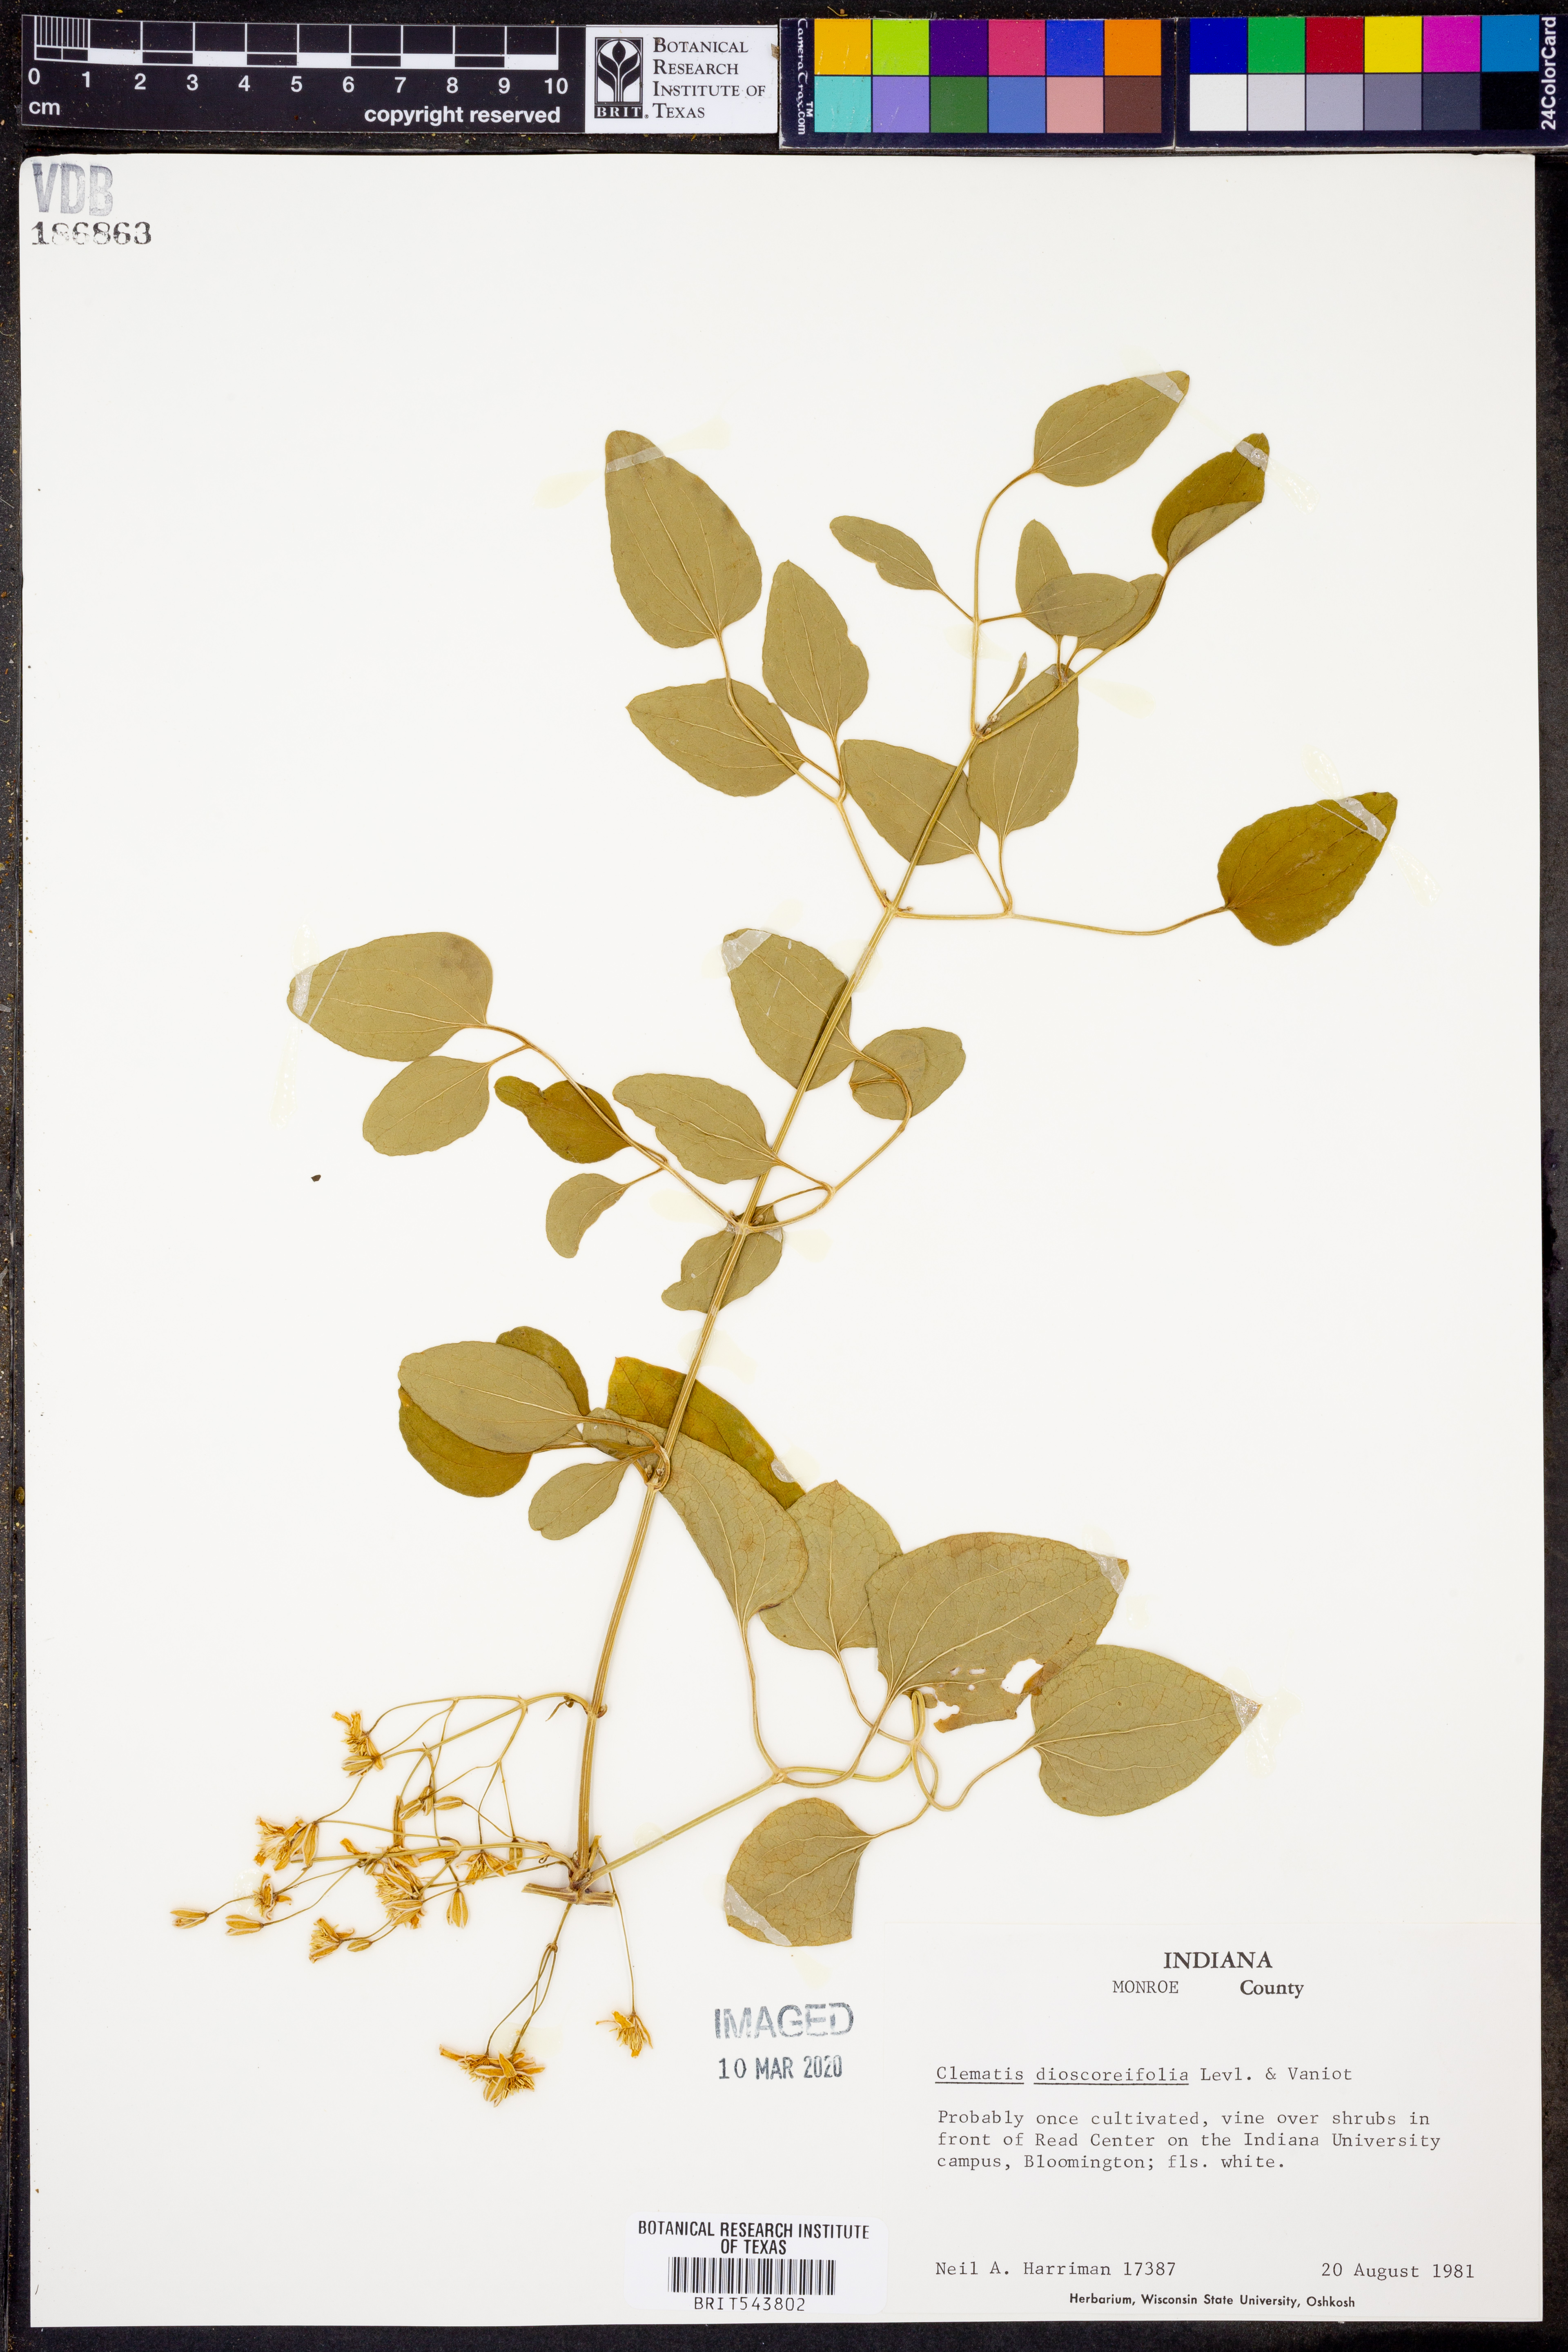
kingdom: Plantae
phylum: Tracheophyta
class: Magnoliopsida
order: Ranunculales
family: Ranunculaceae
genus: Clematis
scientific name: Clematis terniflora
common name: Sweet autumn clematis
